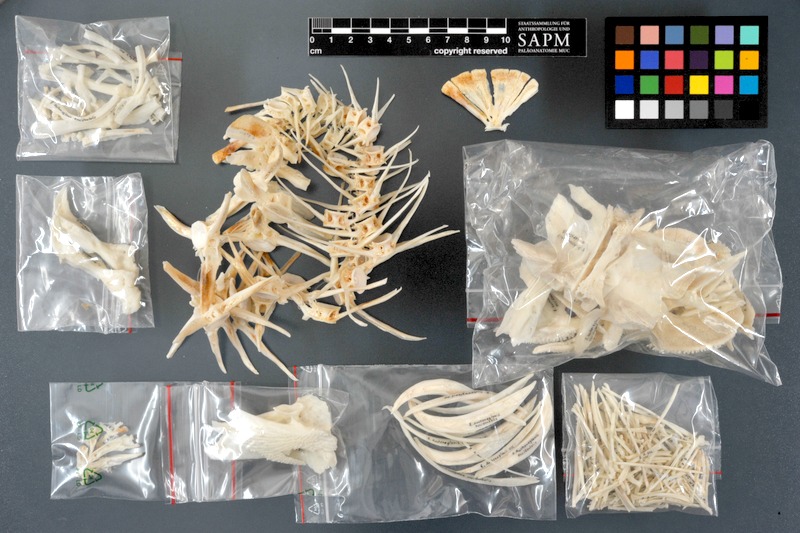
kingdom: Animalia
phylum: Chordata
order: Siluriformes
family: Claroteidae
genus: Auchenoglanis
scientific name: Auchenoglanis occidentalis
